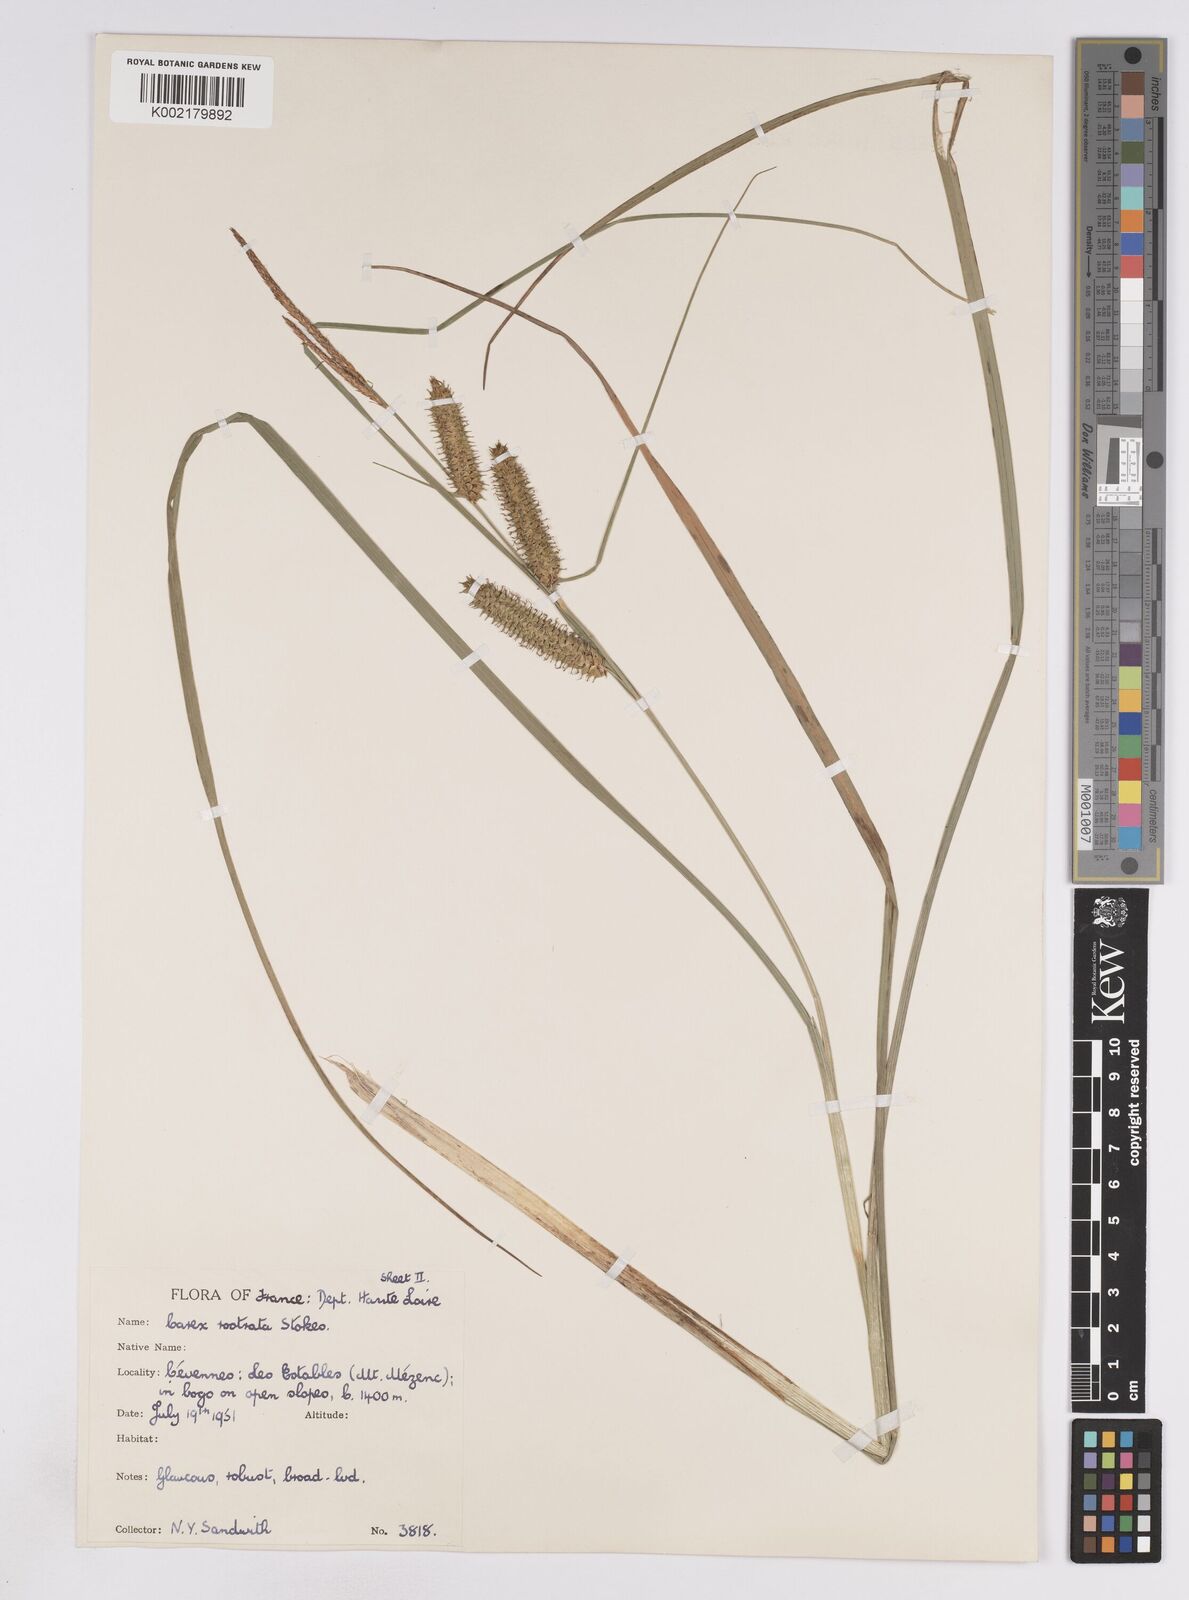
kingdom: Plantae
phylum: Tracheophyta
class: Liliopsida
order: Poales
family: Cyperaceae
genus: Carex
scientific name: Carex rostrata
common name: Bottle sedge
